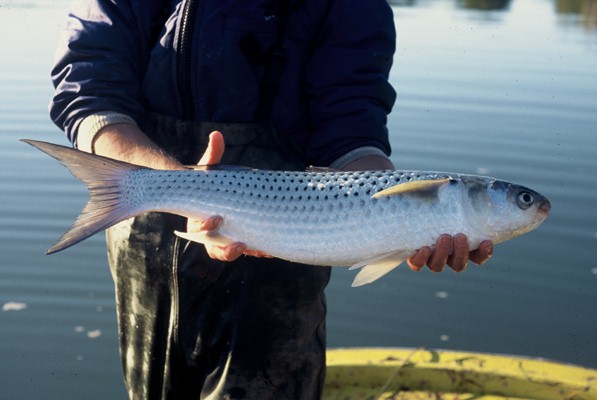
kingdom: Animalia
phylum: Chordata
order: Mugiliformes
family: Mugilidae
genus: Crenimugil
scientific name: Crenimugil buchanani
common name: Bluetail mullet
